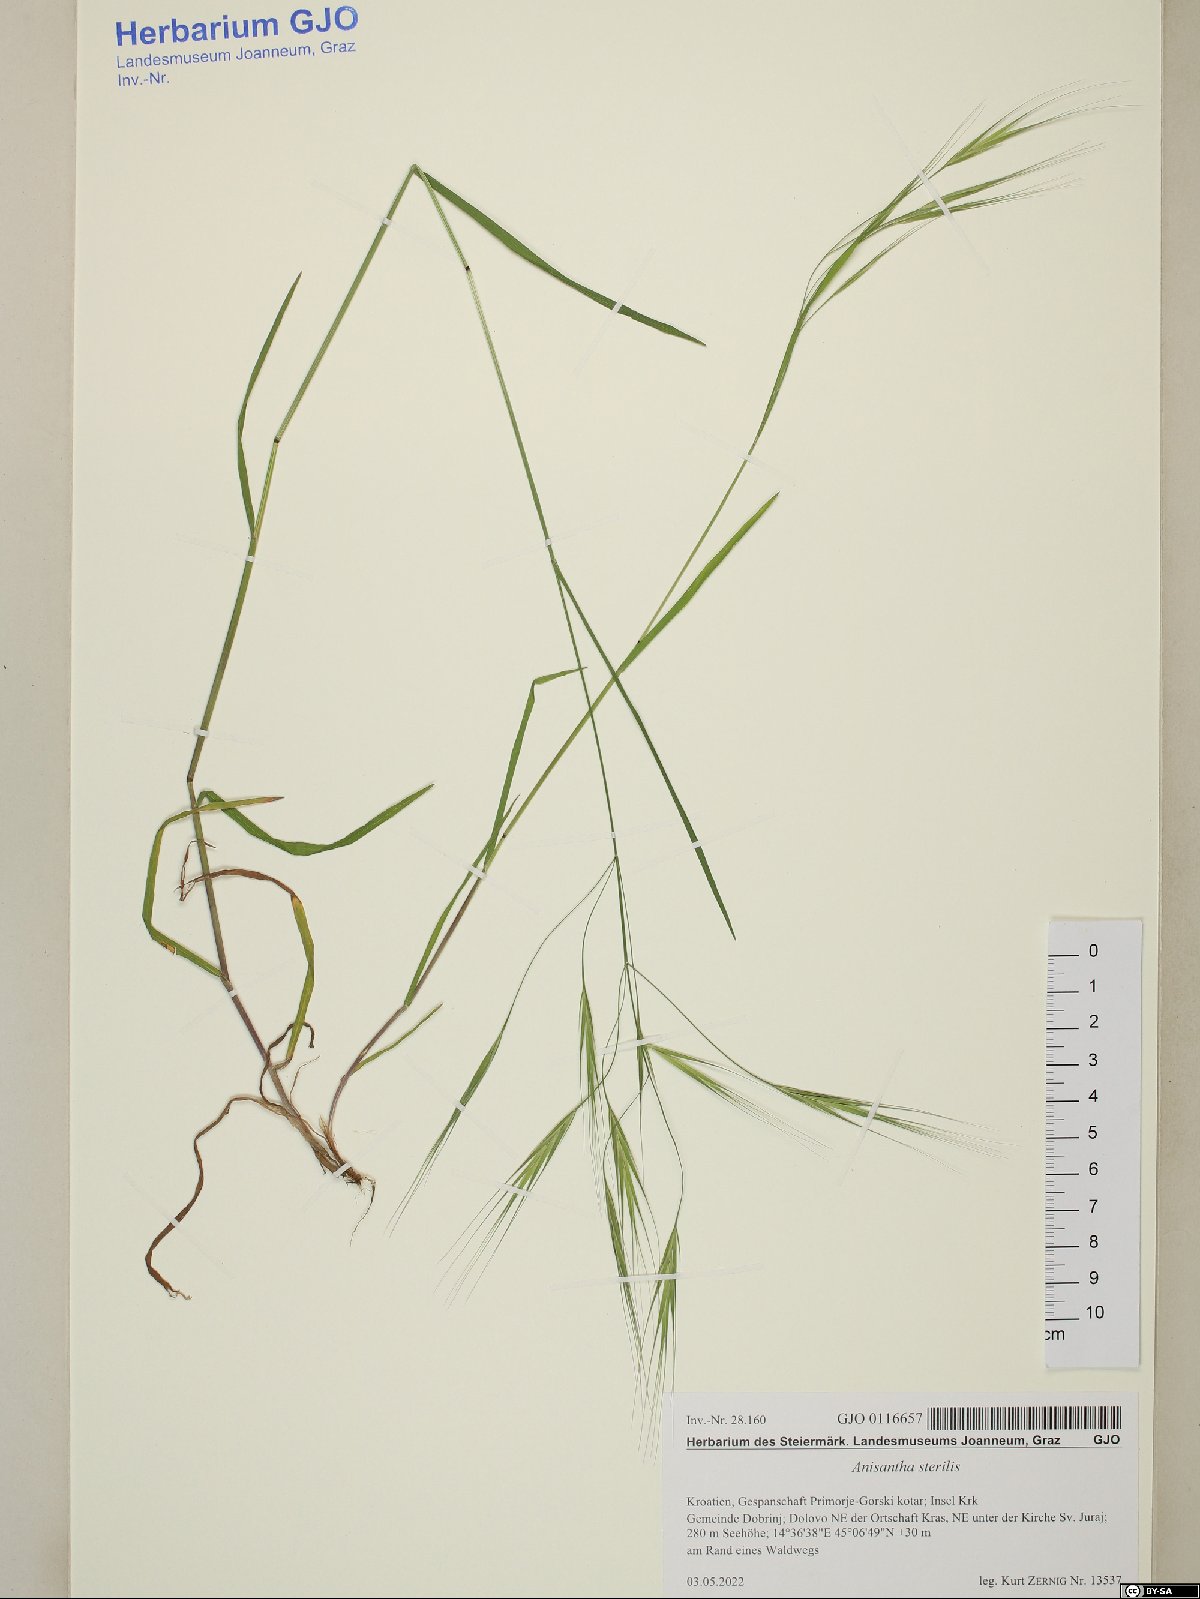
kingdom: Plantae
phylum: Tracheophyta
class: Liliopsida
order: Poales
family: Poaceae
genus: Bromus
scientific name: Bromus sterilis
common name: Poverty brome
